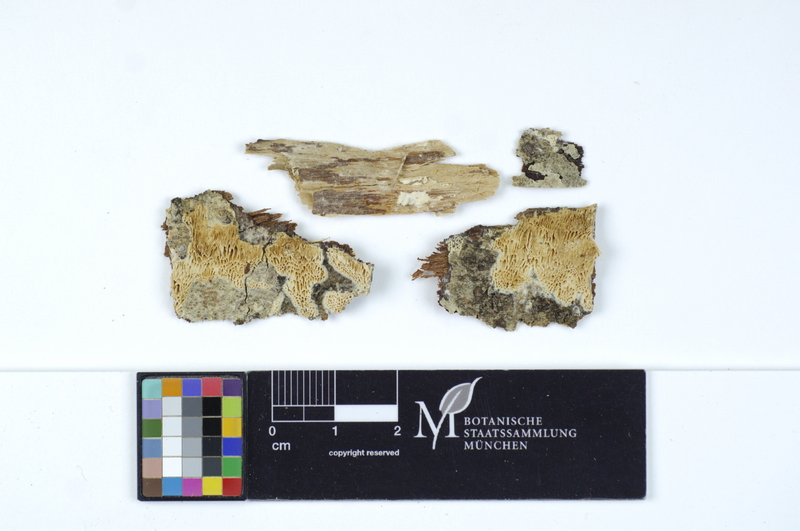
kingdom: Fungi
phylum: Basidiomycota
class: Agaricomycetes
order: Polyporales
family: Fomitopsidaceae
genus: Antrodia
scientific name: Antrodia macra
